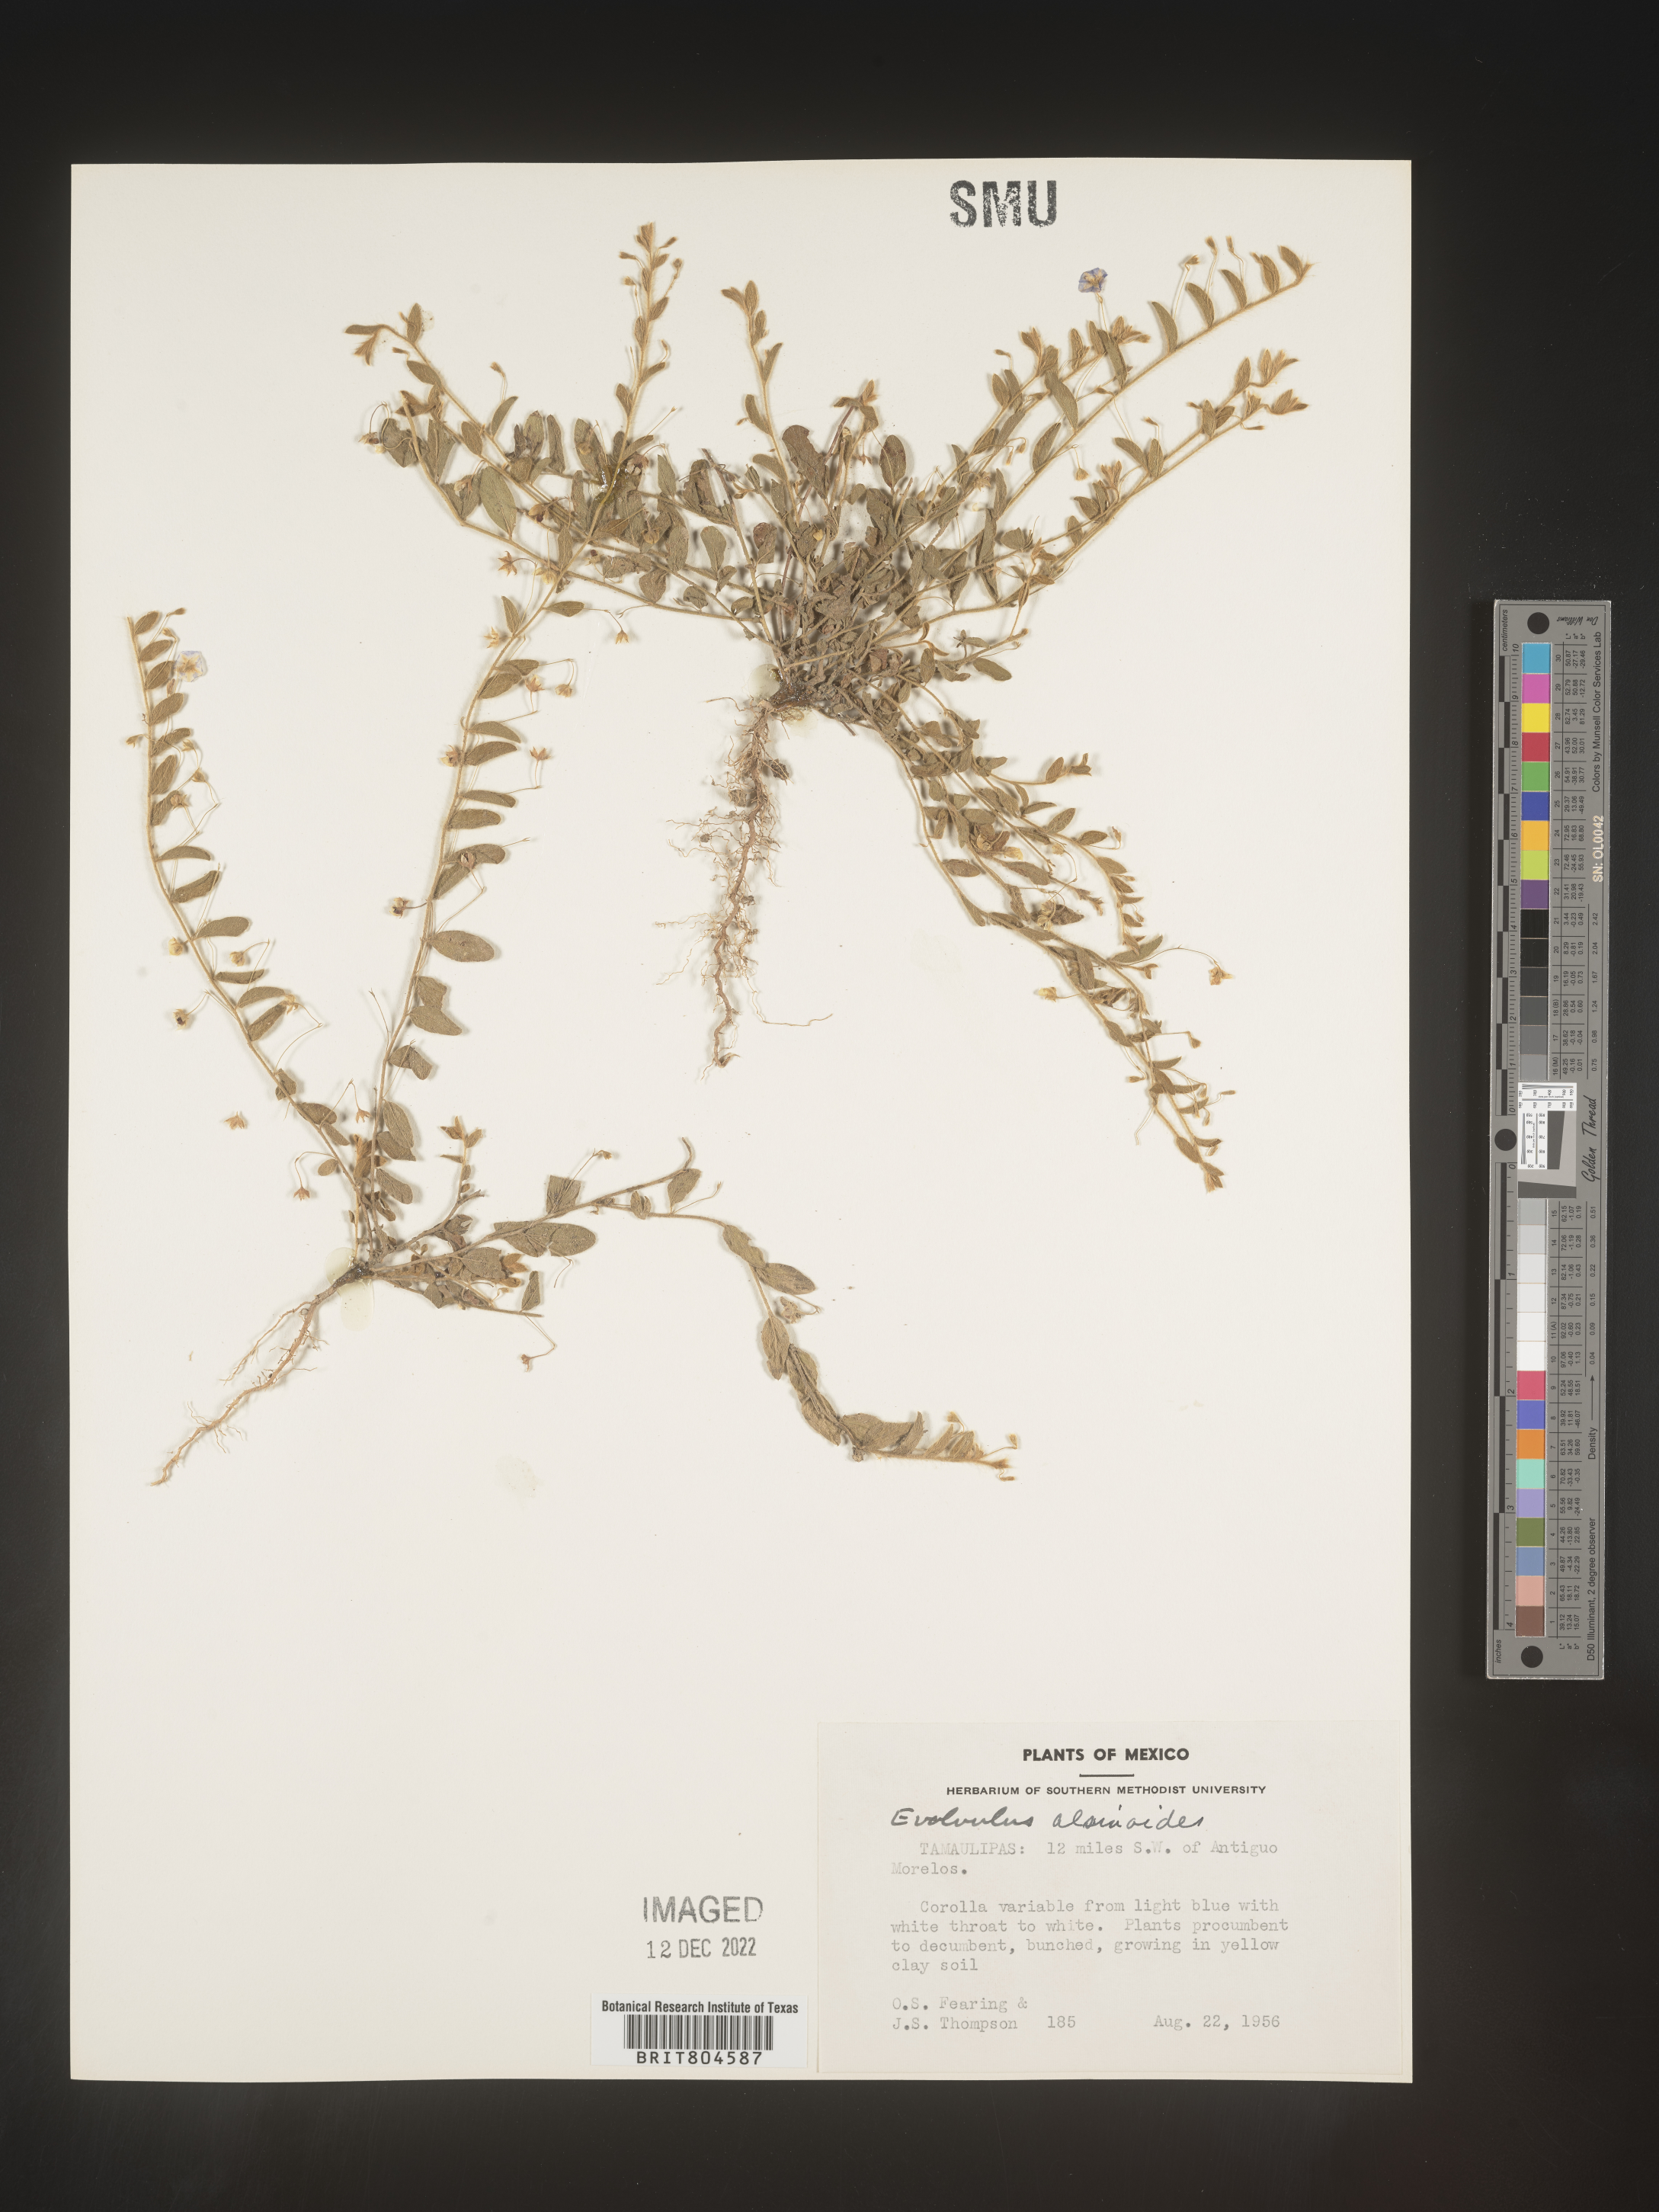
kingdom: Plantae
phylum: Tracheophyta
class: Magnoliopsida
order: Solanales
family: Convolvulaceae
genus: Evolvulus
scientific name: Evolvulus
